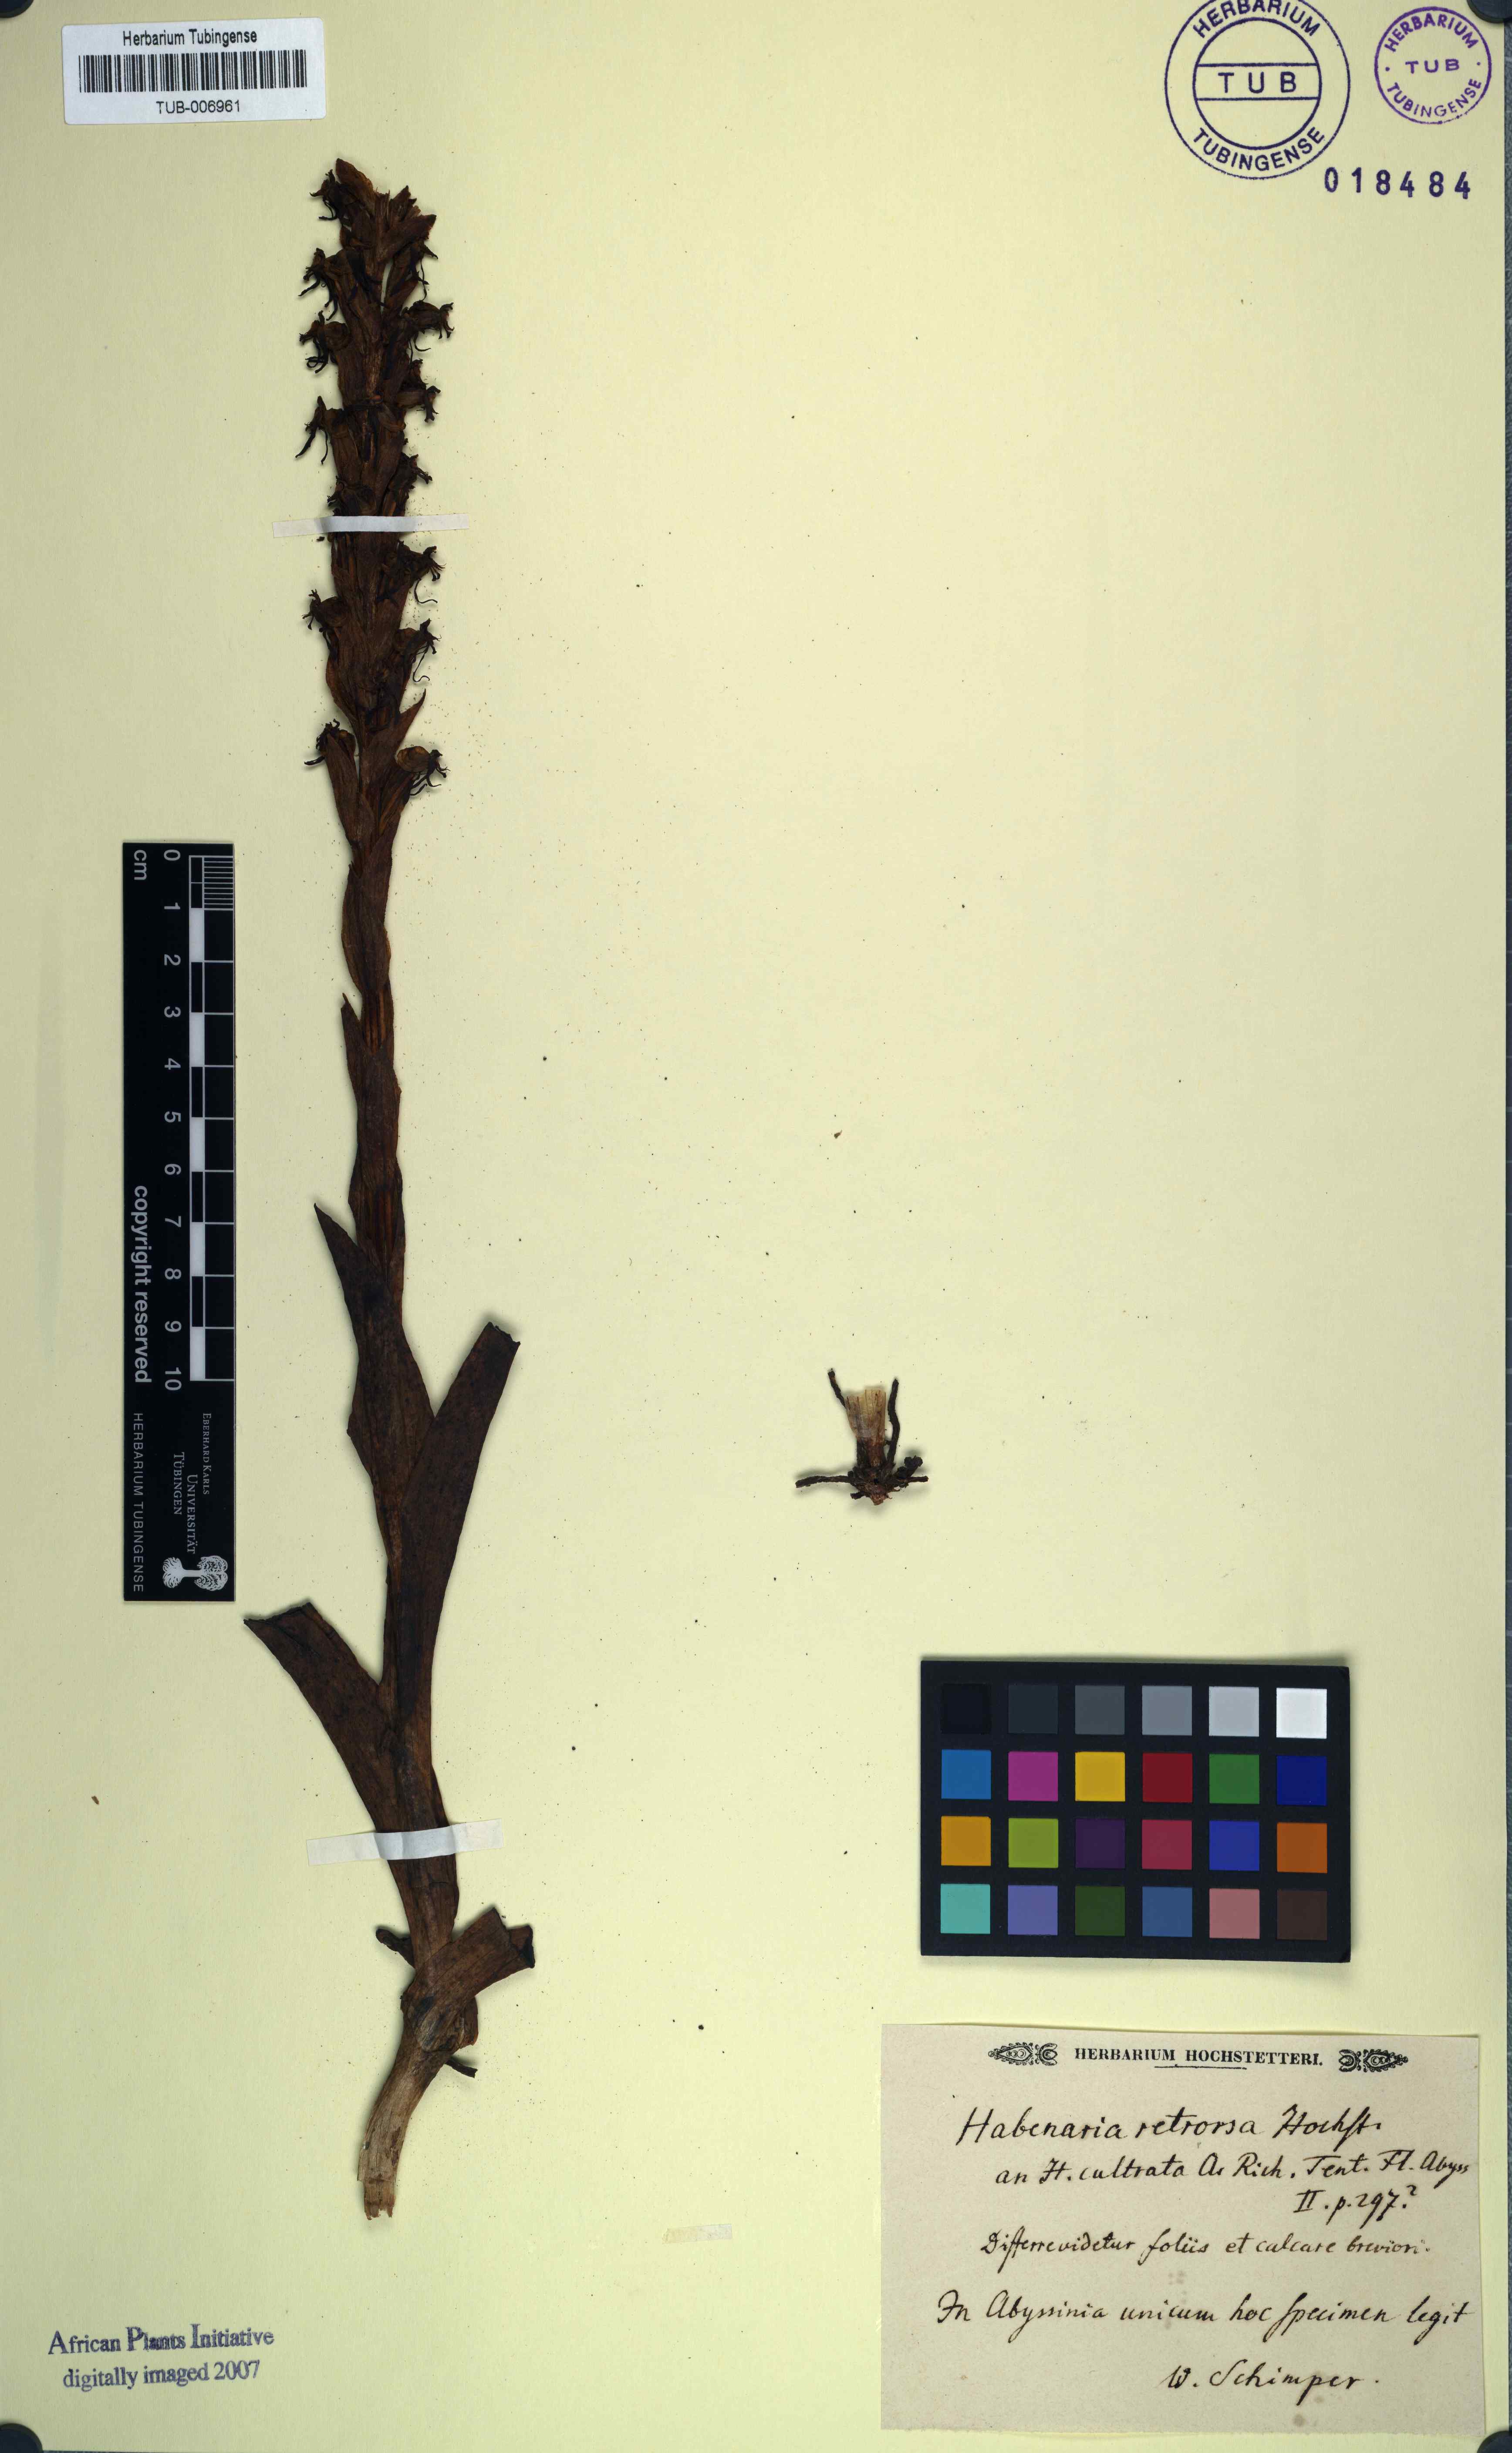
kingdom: Plantae
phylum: Tracheophyta
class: Liliopsida
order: Asparagales
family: Orchidaceae
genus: Habenaria
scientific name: Habenaria
